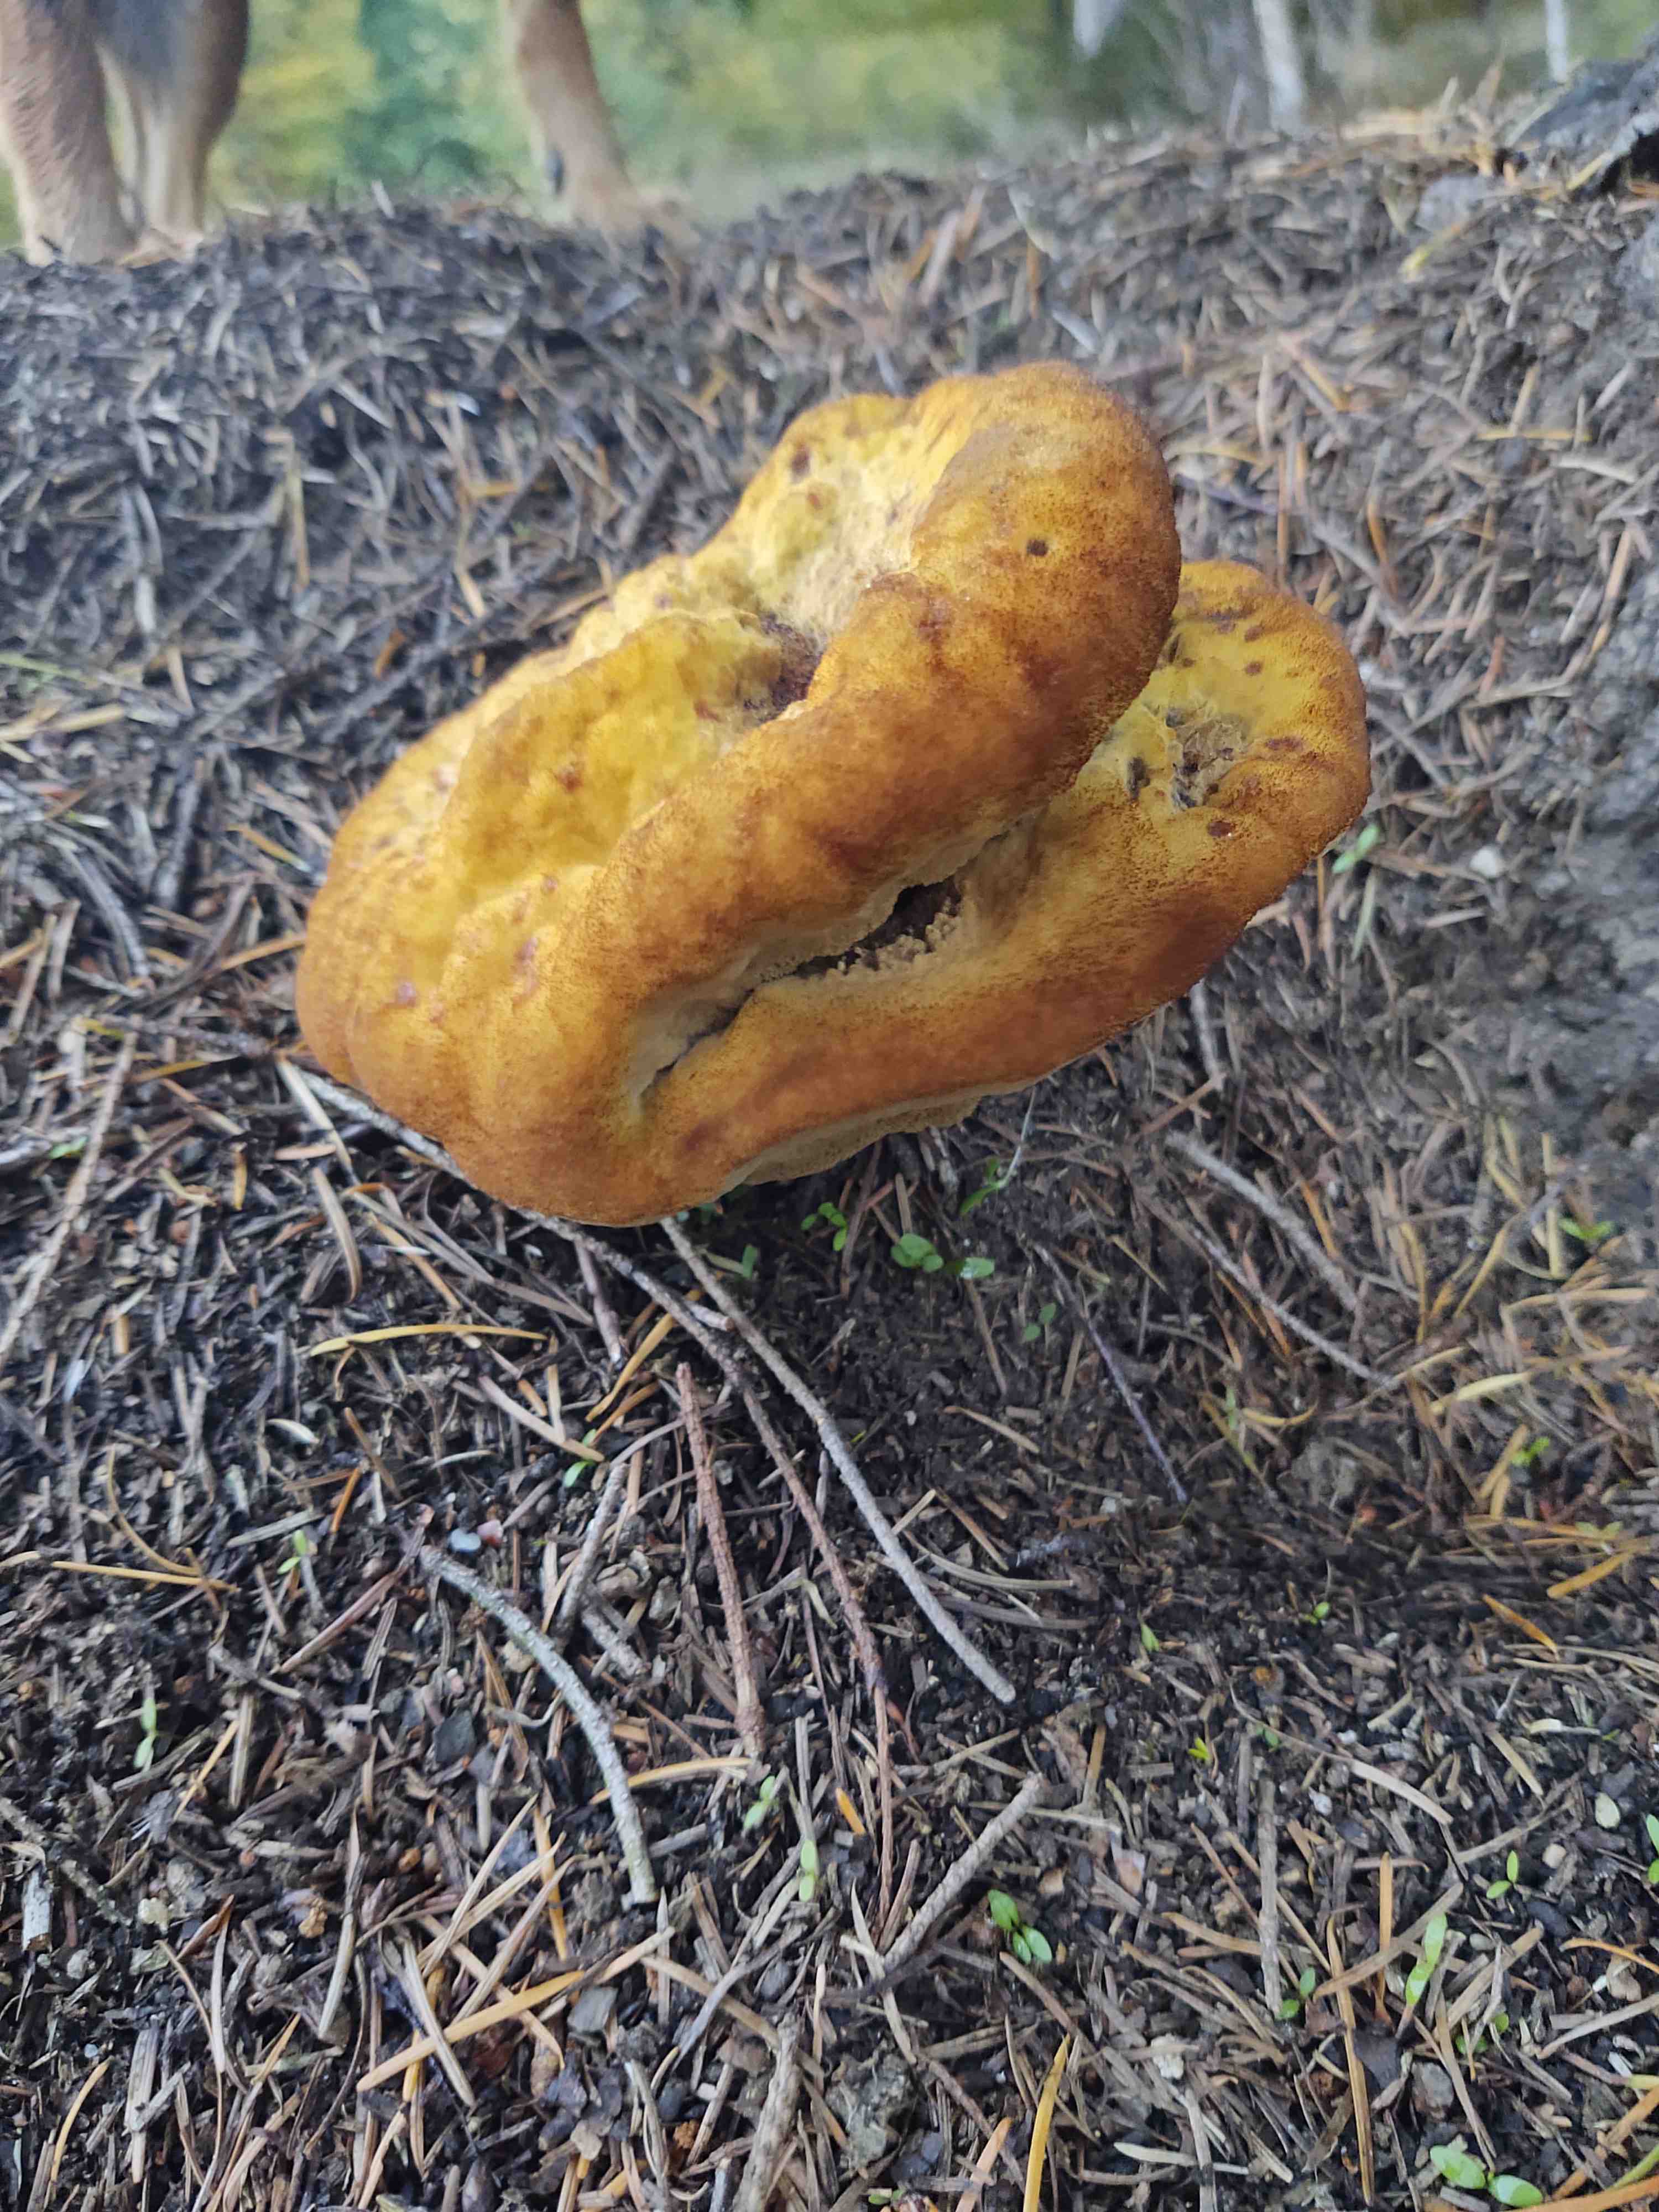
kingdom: Fungi
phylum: Basidiomycota
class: Agaricomycetes
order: Polyporales
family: Laetiporaceae
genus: Phaeolus
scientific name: Phaeolus schweinitzii
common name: brunporesvamp
